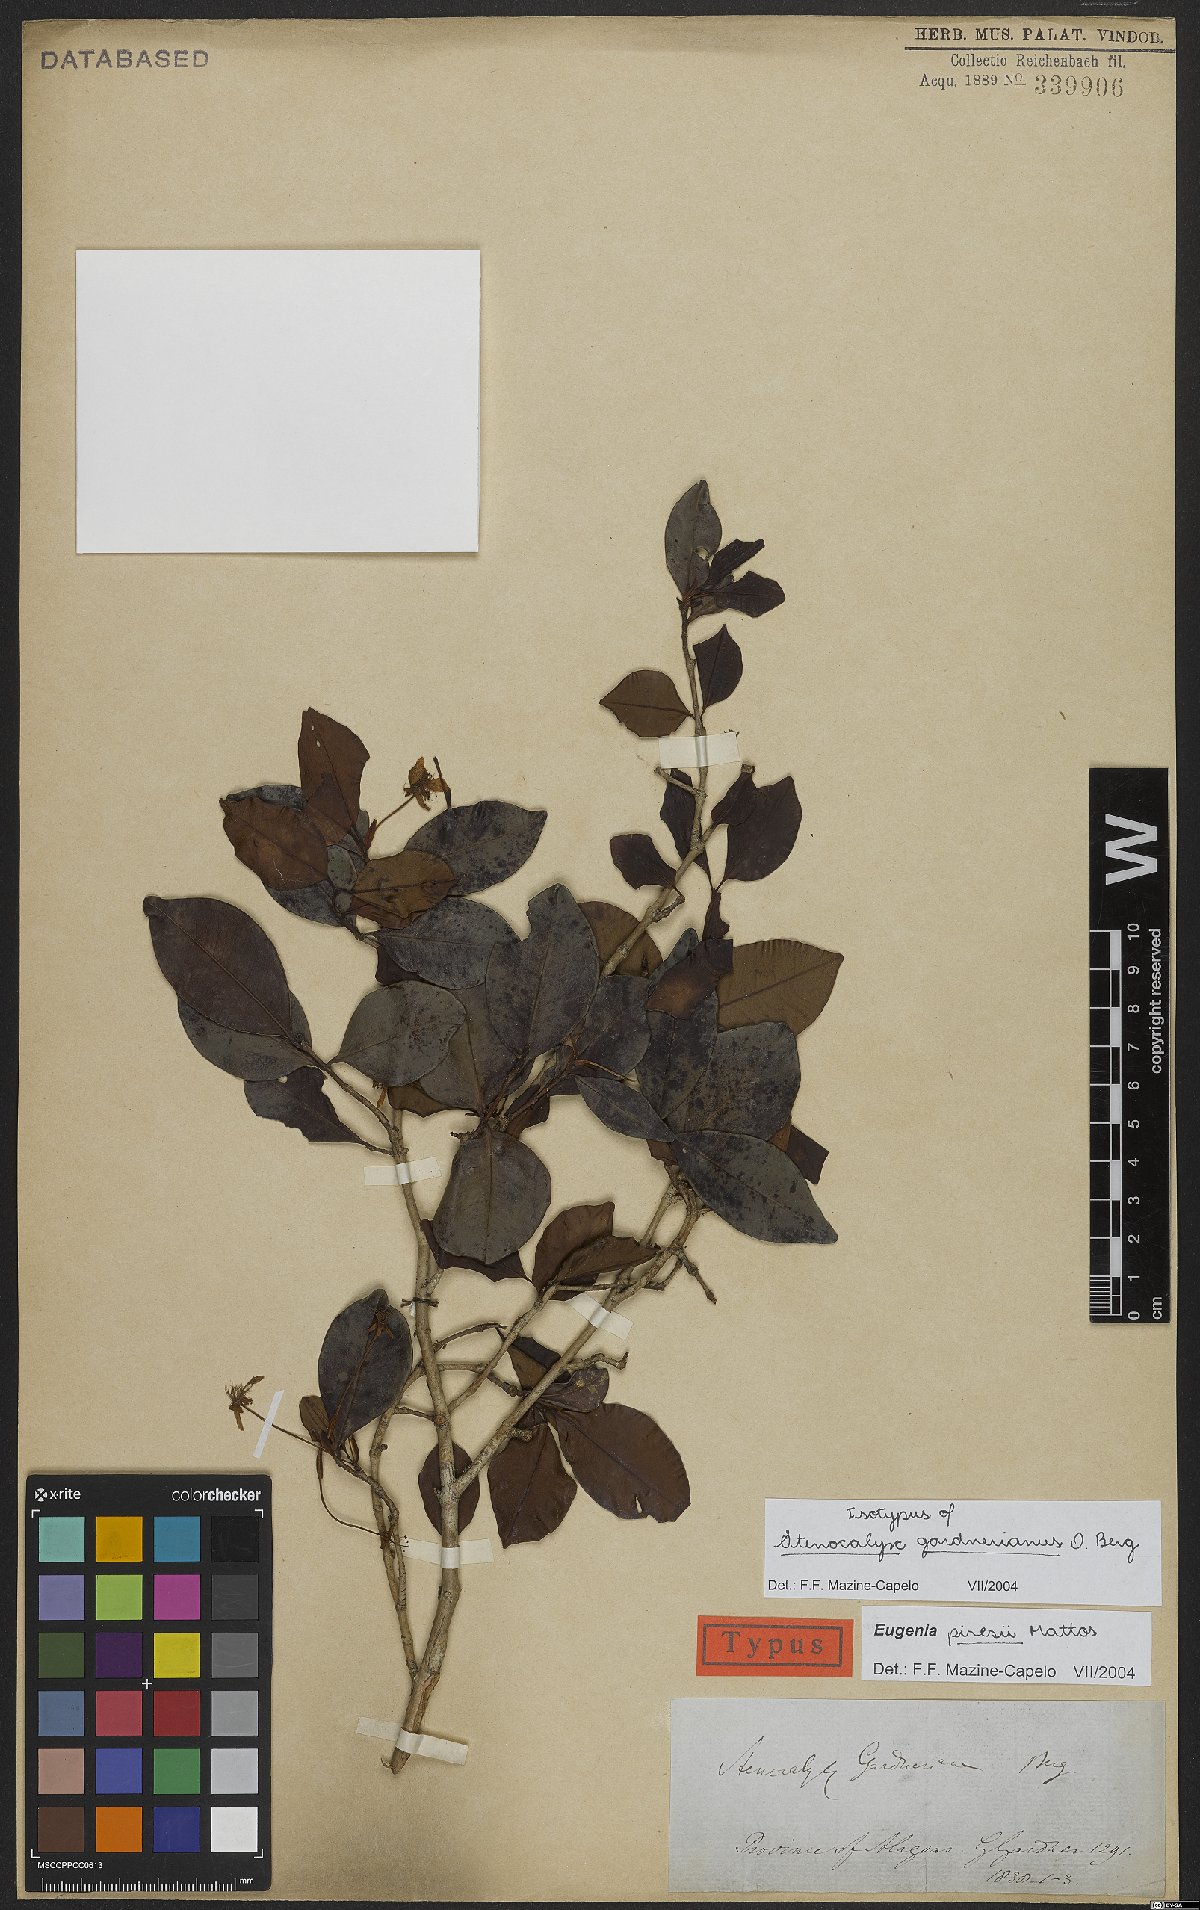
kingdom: Plantae
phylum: Tracheophyta
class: Magnoliopsida
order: Myrtales
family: Myrtaceae
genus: Eugenia
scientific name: Eugenia piresii
